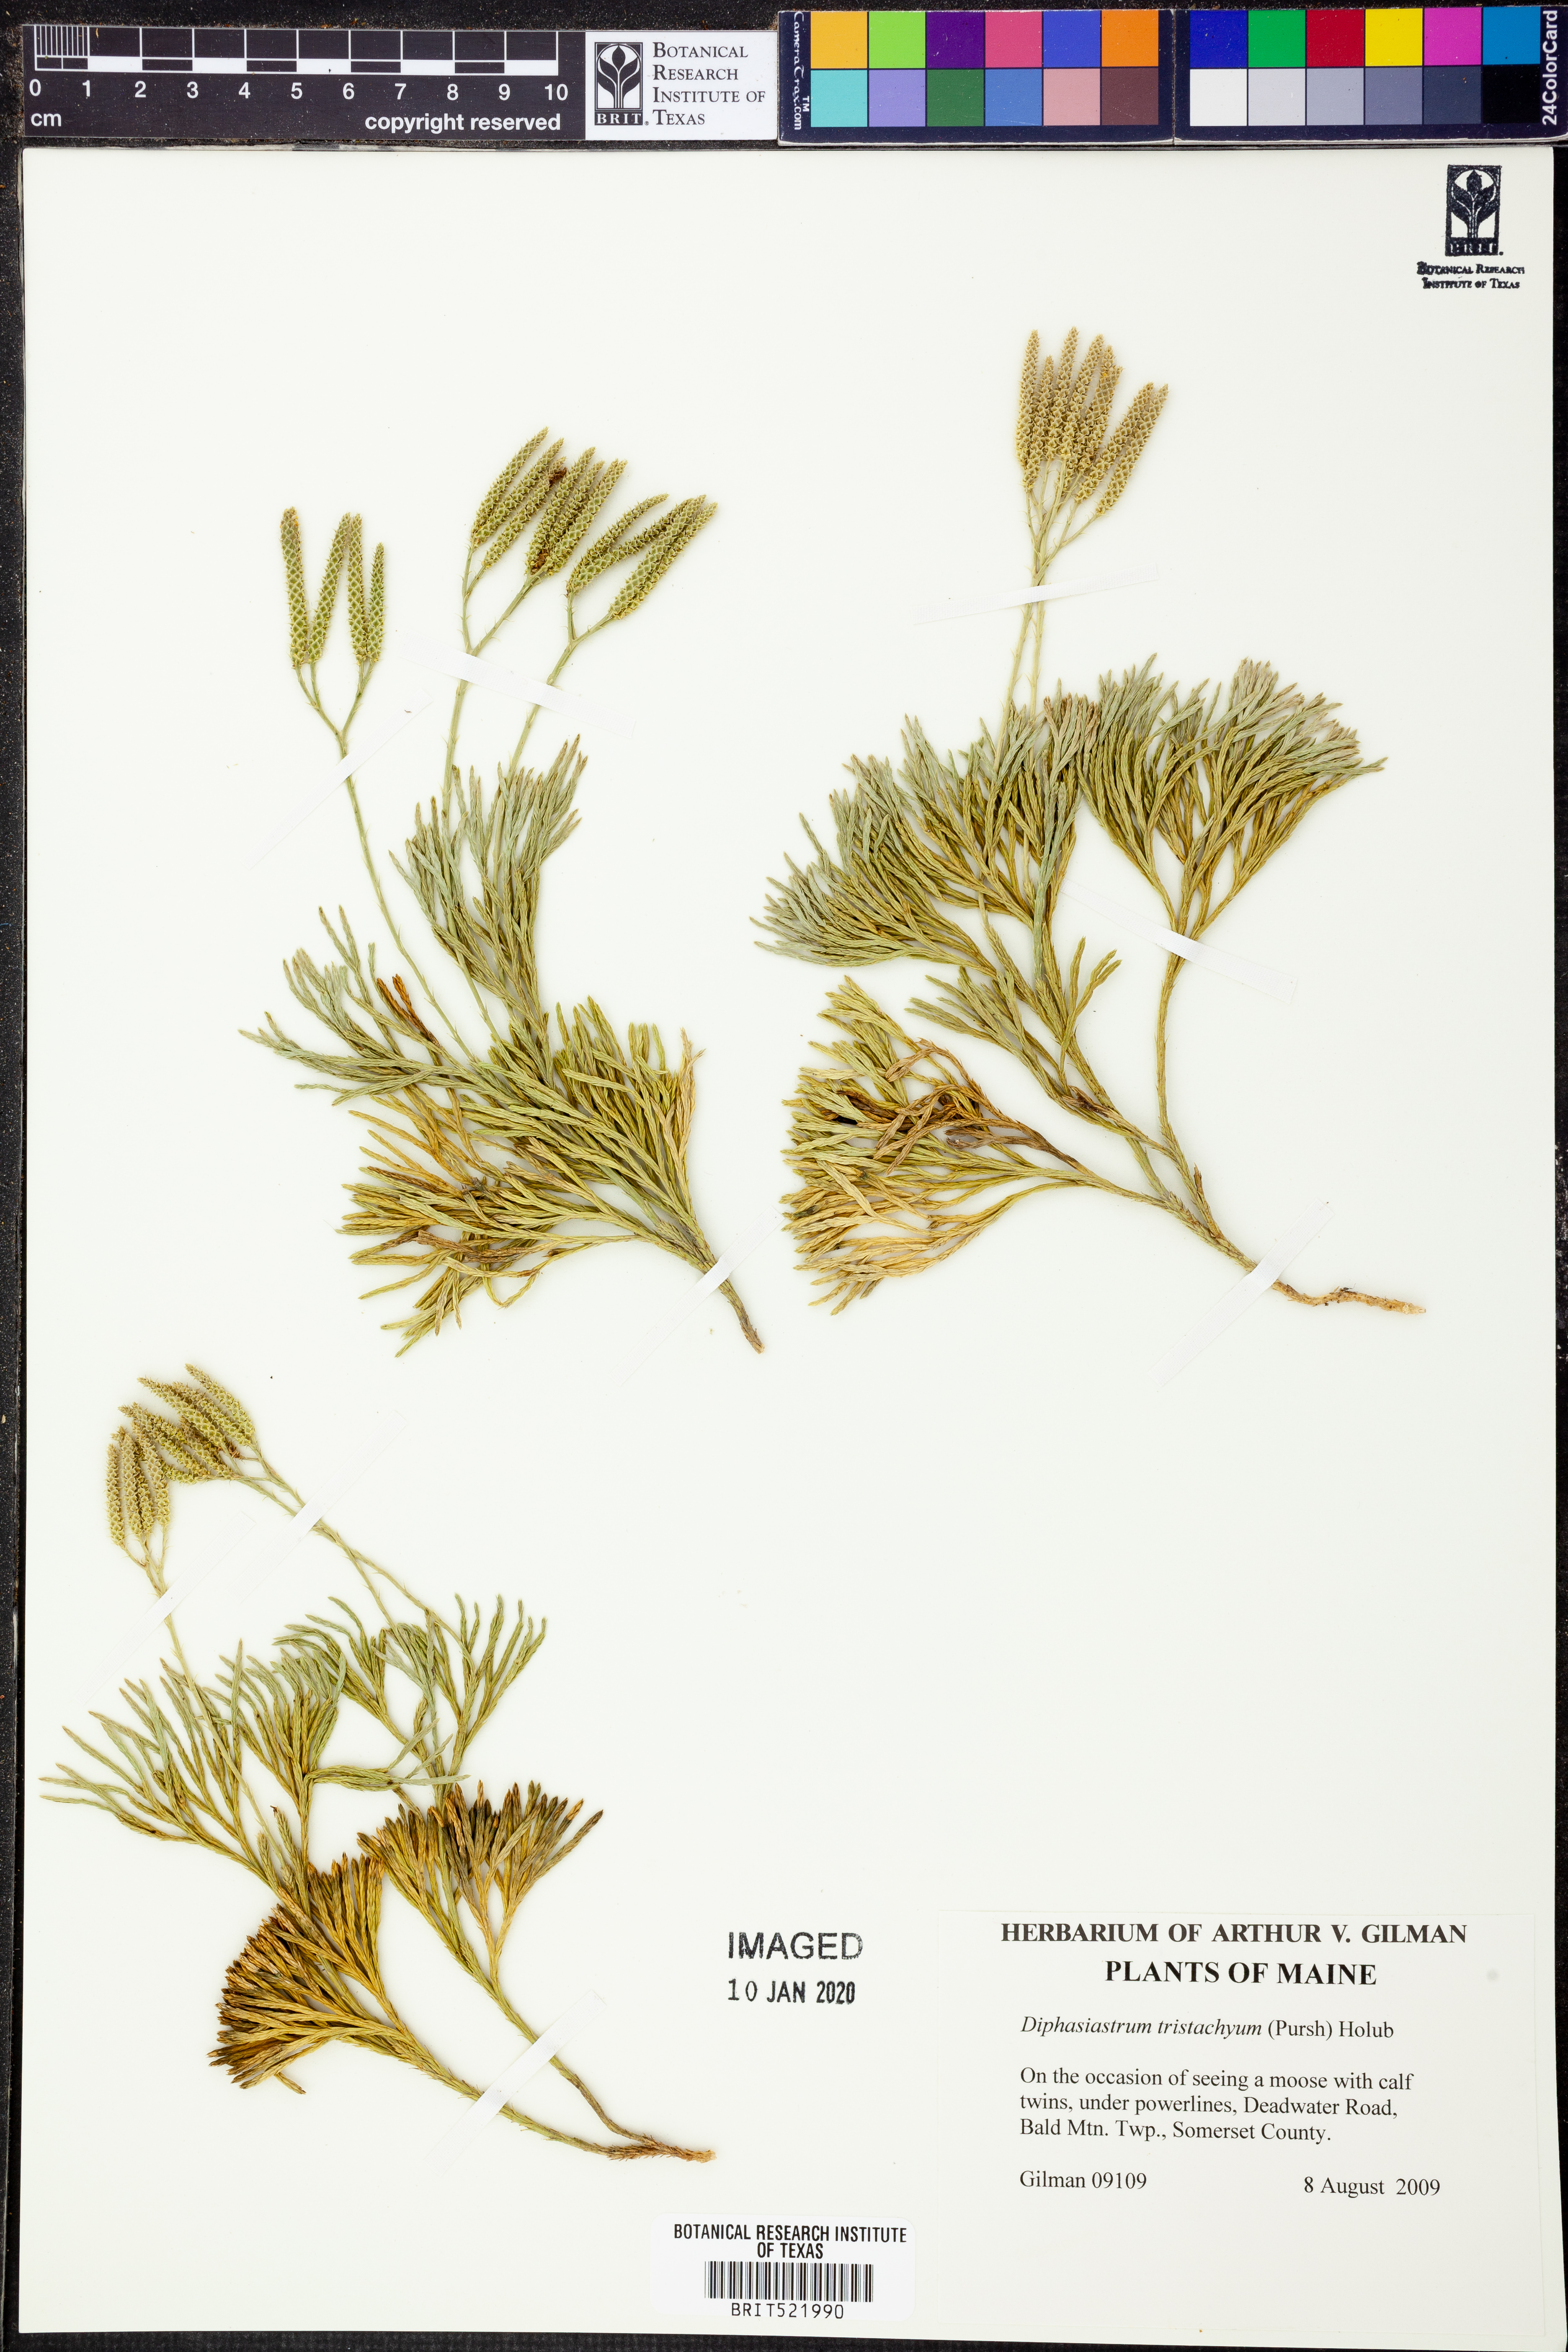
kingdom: Plantae
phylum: Tracheophyta
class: Lycopodiopsida
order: Lycopodiales
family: Lycopodiaceae
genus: Diphasiastrum
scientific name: Diphasiastrum tristachyum
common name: Blue ground-cedar
